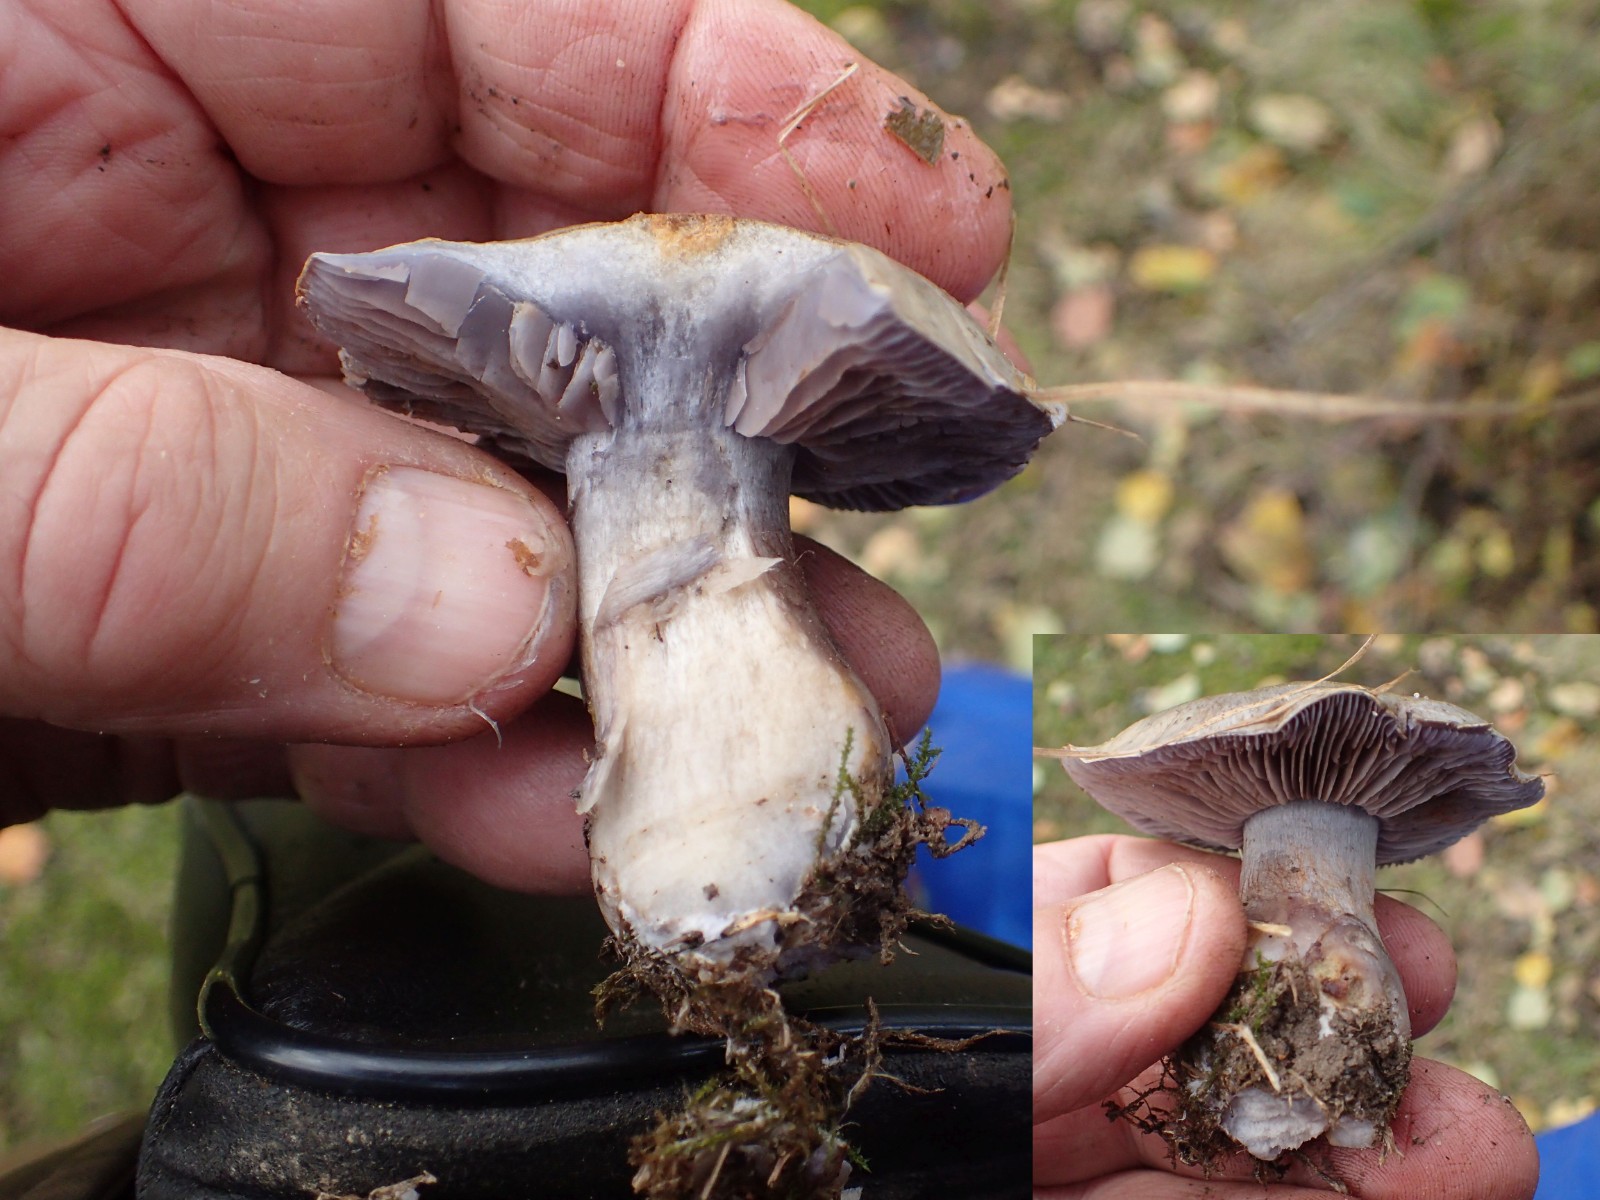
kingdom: Fungi
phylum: Basidiomycota
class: Agaricomycetes
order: Agaricales
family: Cortinariaceae
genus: Phlegmacium
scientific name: Phlegmacium
